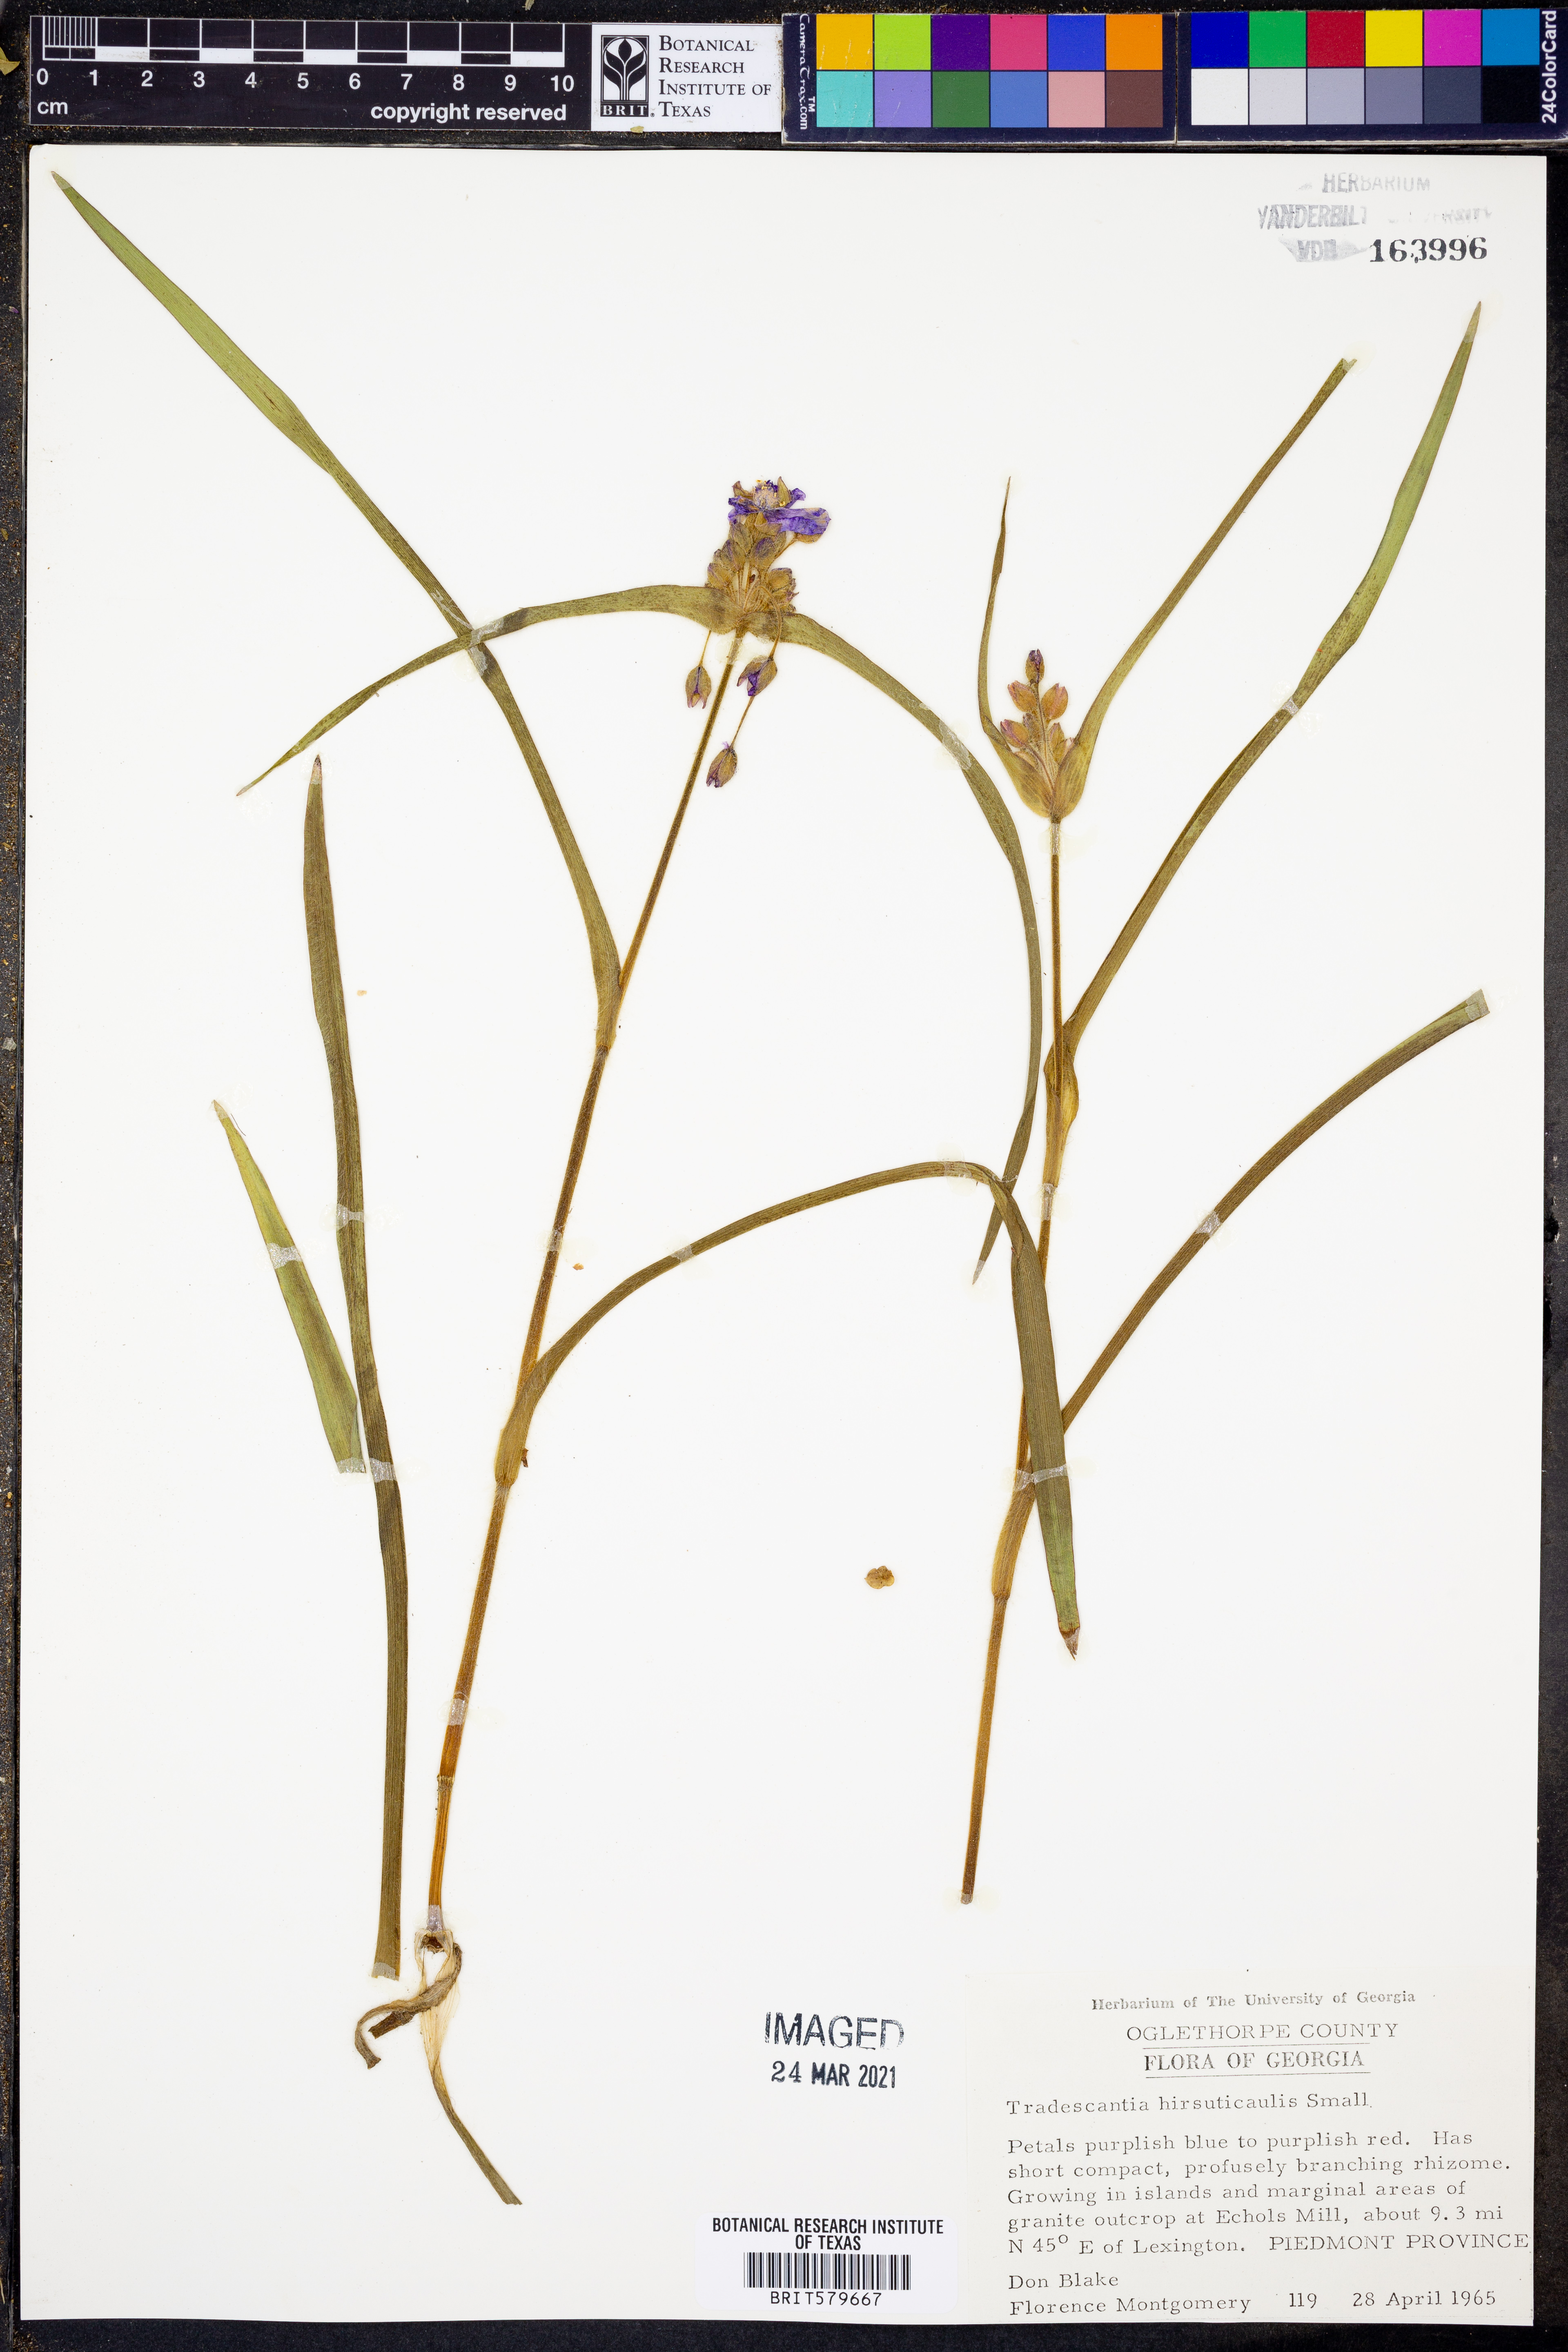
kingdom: Plantae
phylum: Tracheophyta
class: Liliopsida
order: Commelinales
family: Commelinaceae
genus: Tradescantia
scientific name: Tradescantia hirsuticaulis
